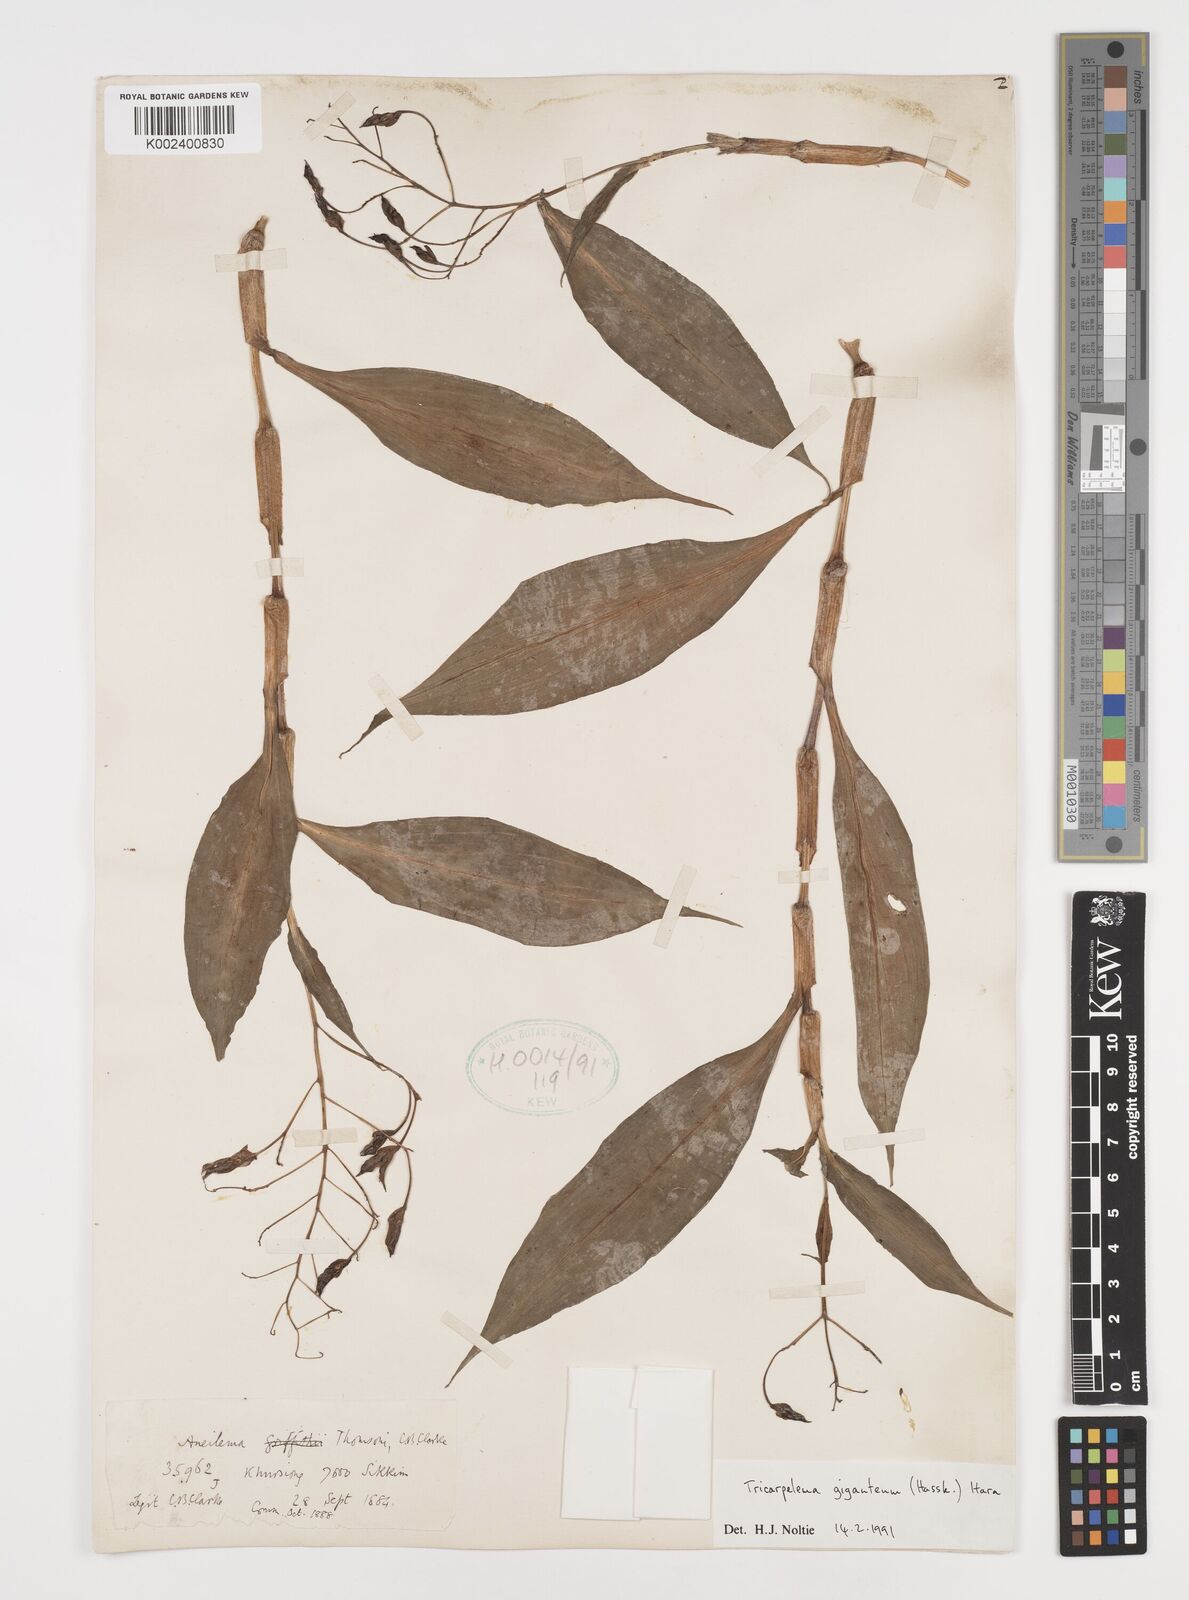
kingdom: Plantae
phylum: Tracheophyta
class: Liliopsida
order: Commelinales
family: Commelinaceae
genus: Tricarpelema
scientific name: Tricarpelema giganteum
